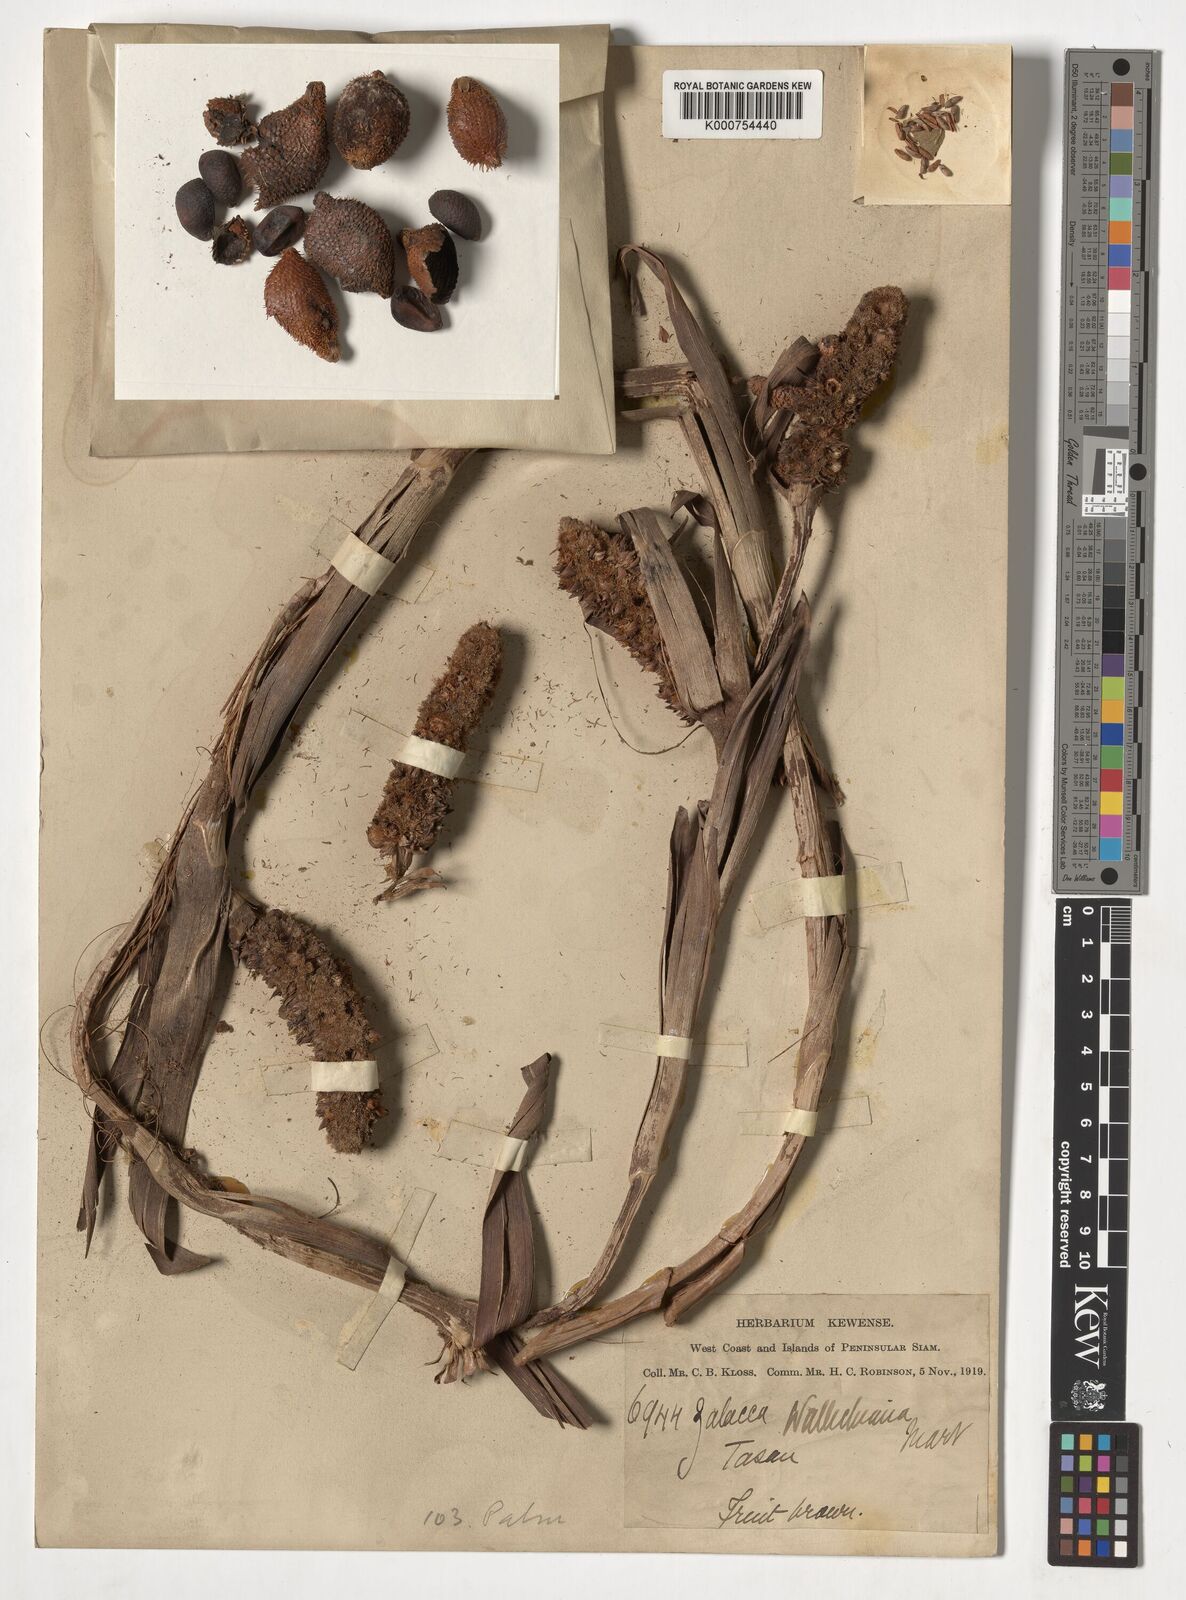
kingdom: Plantae
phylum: Tracheophyta
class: Liliopsida
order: Arecales
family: Arecaceae
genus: Salacca
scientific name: Salacca wallichiana
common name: Rakum palm
